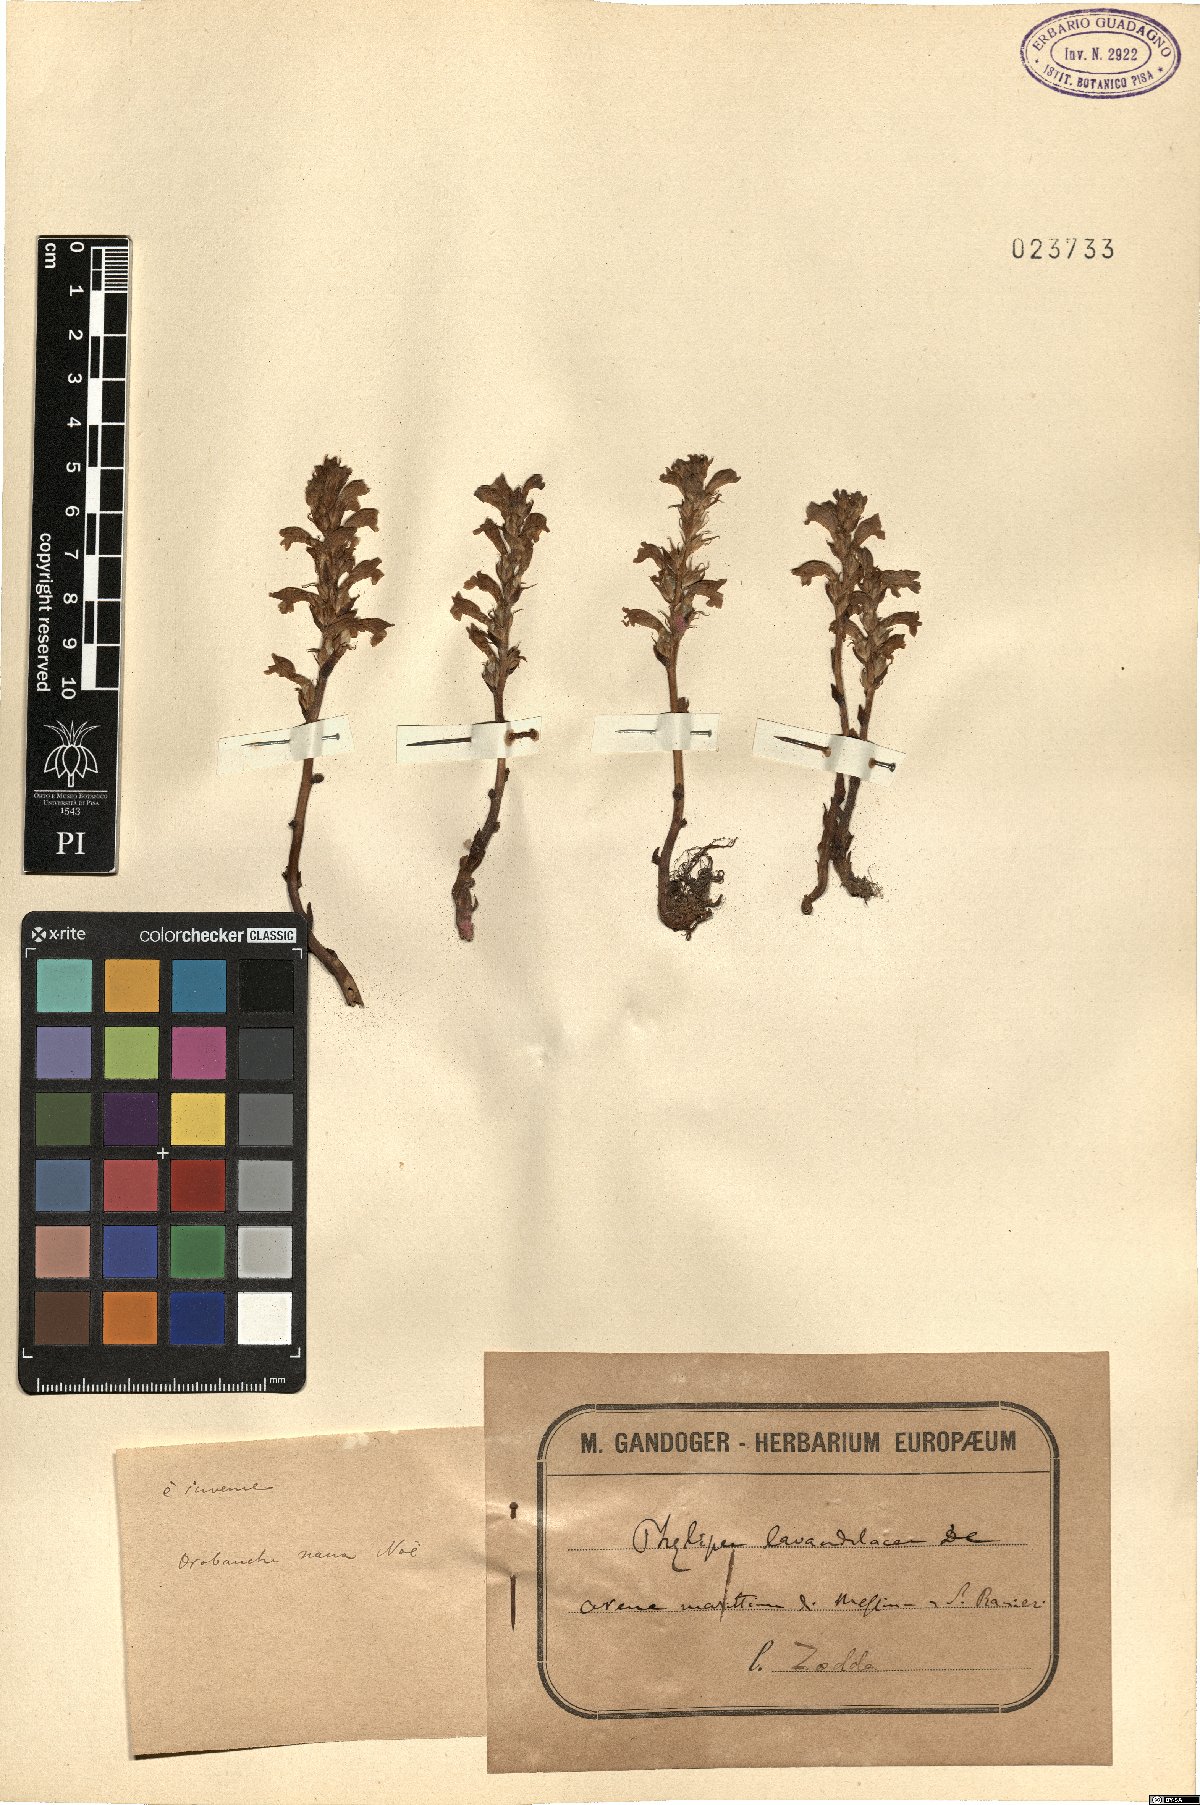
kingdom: Plantae
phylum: Tracheophyta
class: Magnoliopsida
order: Lamiales
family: Orobanchaceae
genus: Phelipanche
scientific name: Phelipanche mutelii
